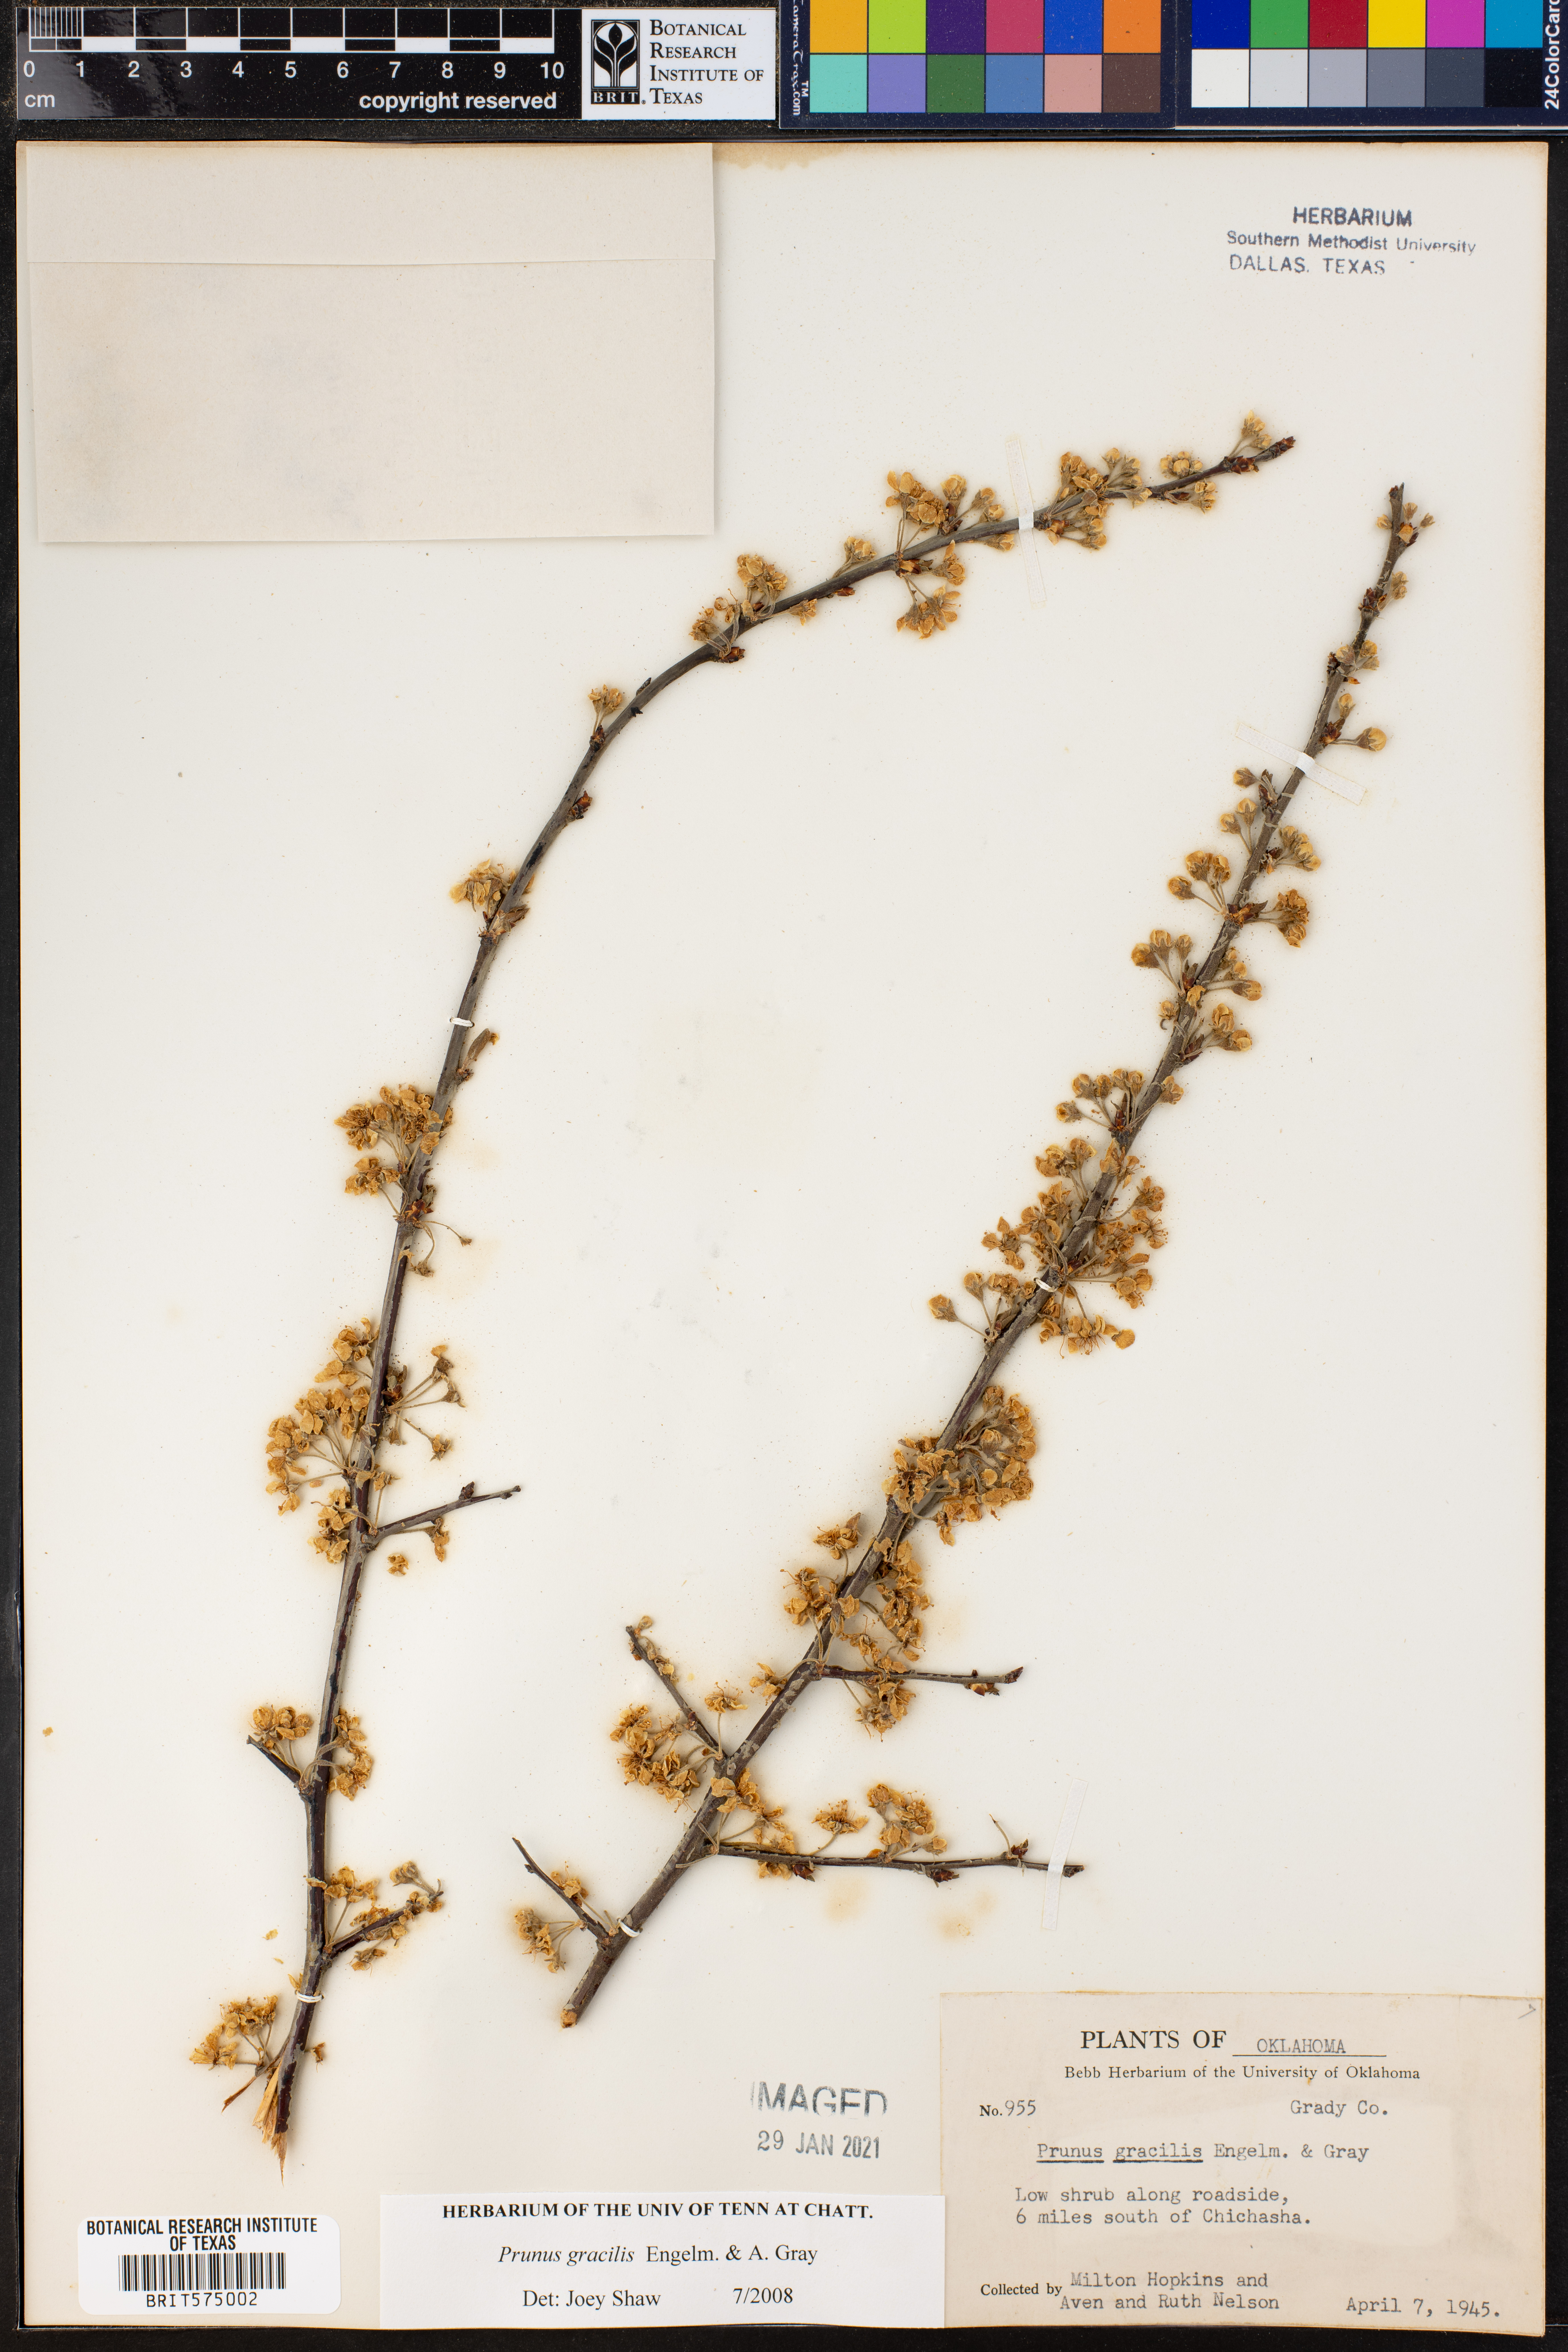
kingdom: Plantae
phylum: Tracheophyta
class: Magnoliopsida
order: Rosales
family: Rosaceae
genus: Prunus
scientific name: Prunus gracilis
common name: Oklahoma plum
